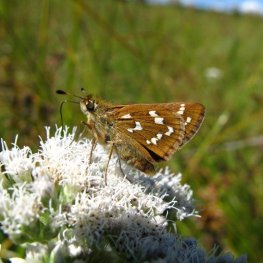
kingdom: Animalia
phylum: Arthropoda
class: Insecta
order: Lepidoptera
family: Hesperiidae
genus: Hesperia
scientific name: Hesperia comma
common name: Common Branded Skipper
